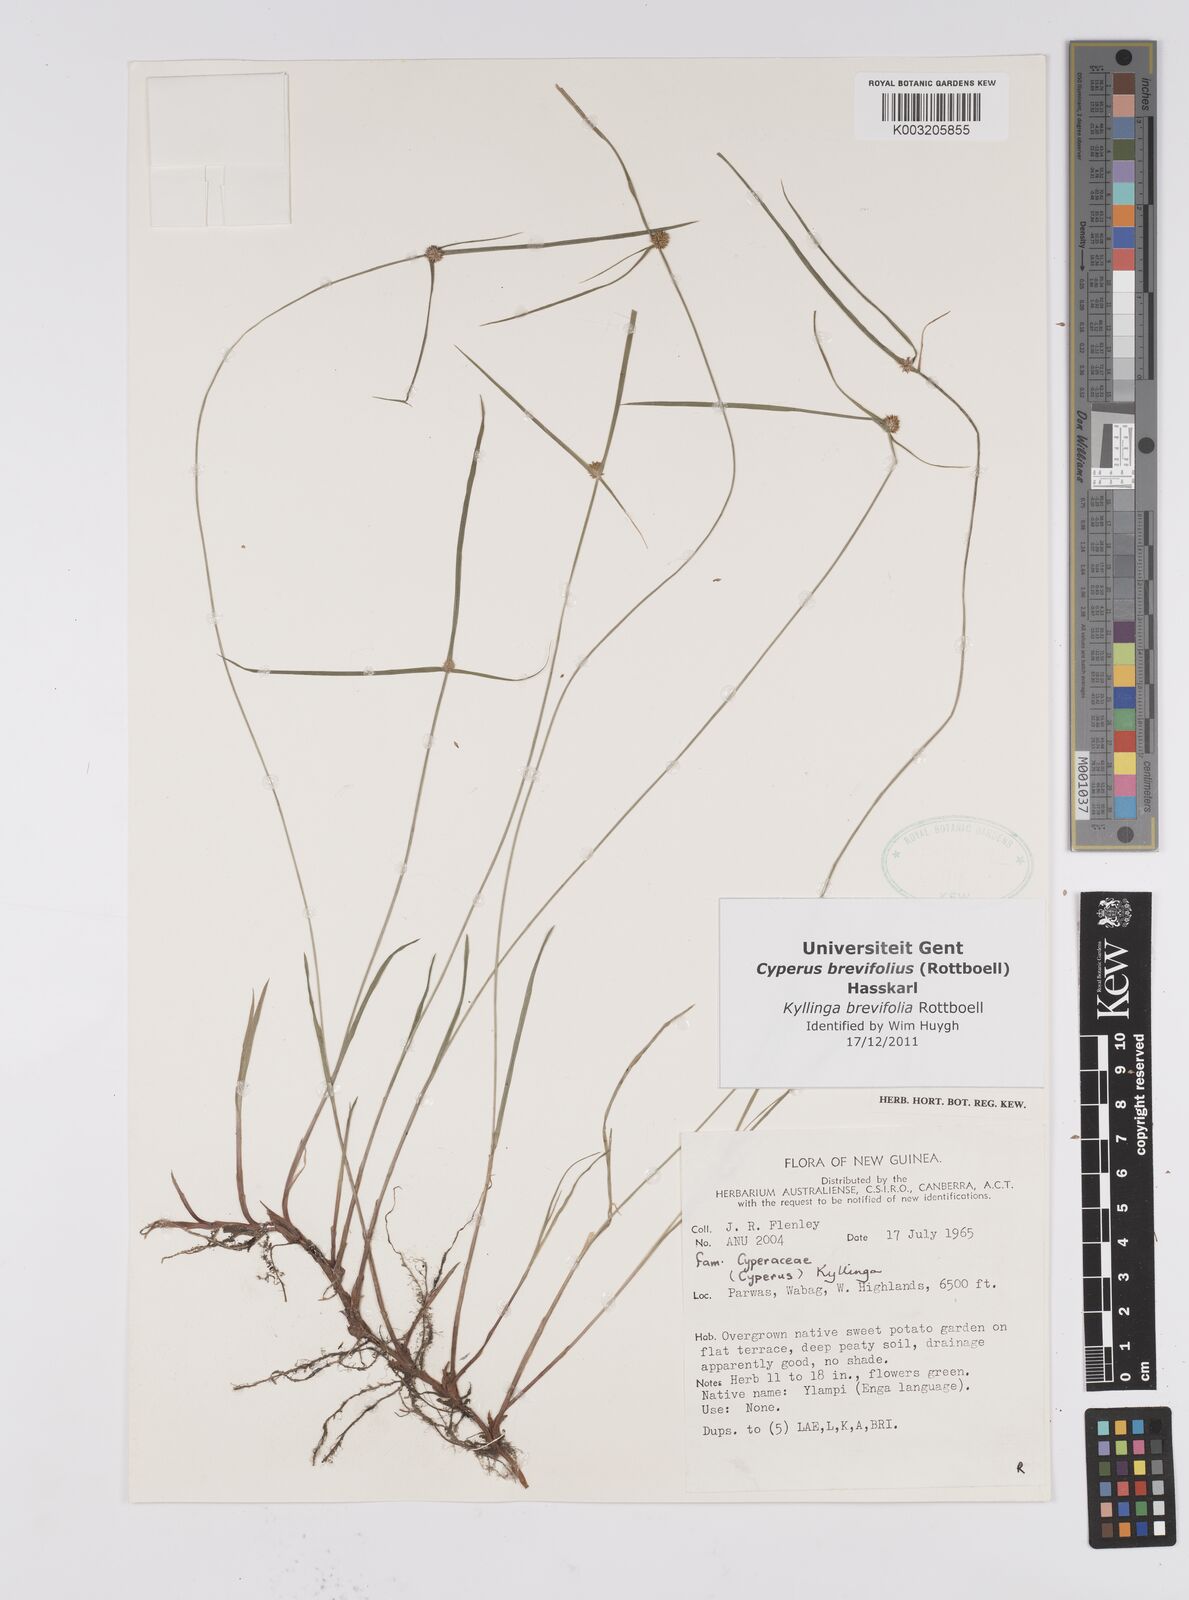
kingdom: Plantae
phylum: Tracheophyta
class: Liliopsida
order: Poales
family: Cyperaceae
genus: Cyperus
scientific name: Cyperus brevifolius
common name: Globe kyllinga
